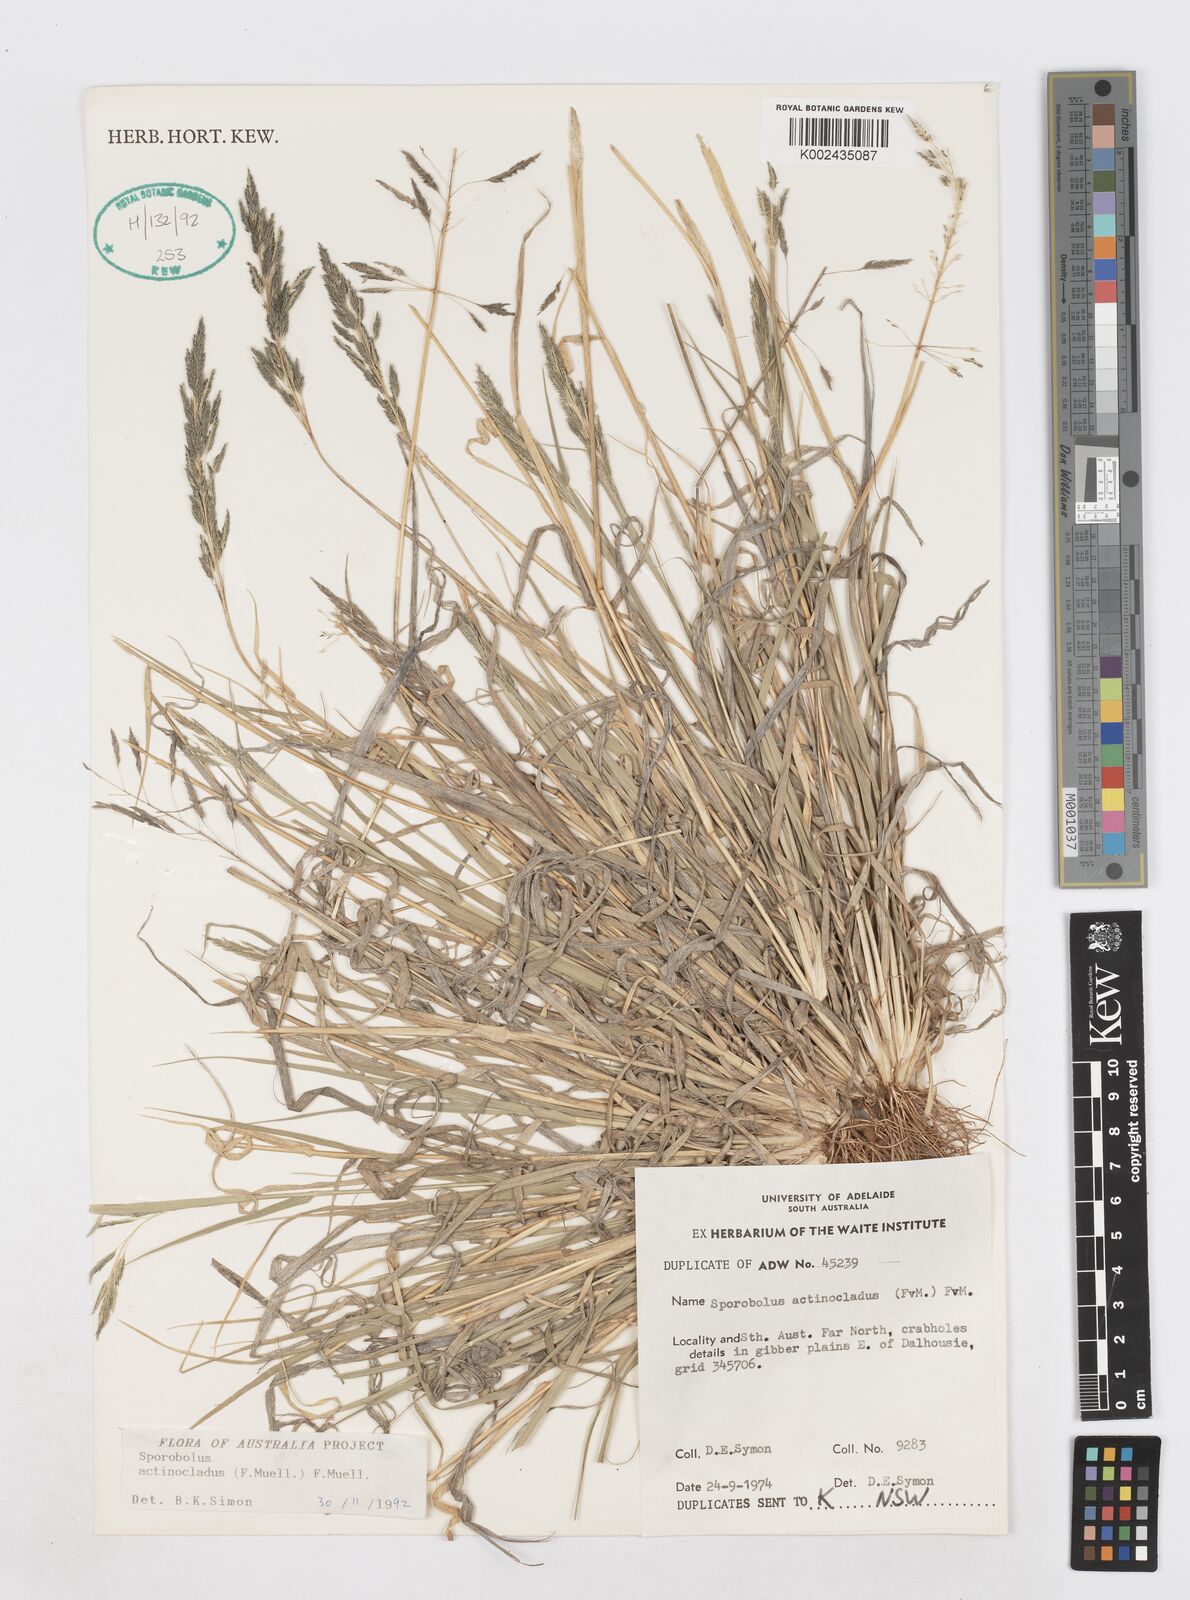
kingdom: Plantae
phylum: Tracheophyta
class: Liliopsida
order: Poales
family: Poaceae
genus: Sporobolus
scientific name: Sporobolus actinocladus
